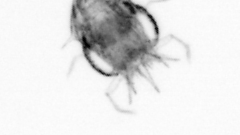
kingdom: Animalia
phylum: Annelida
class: Polychaeta
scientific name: Polychaeta
